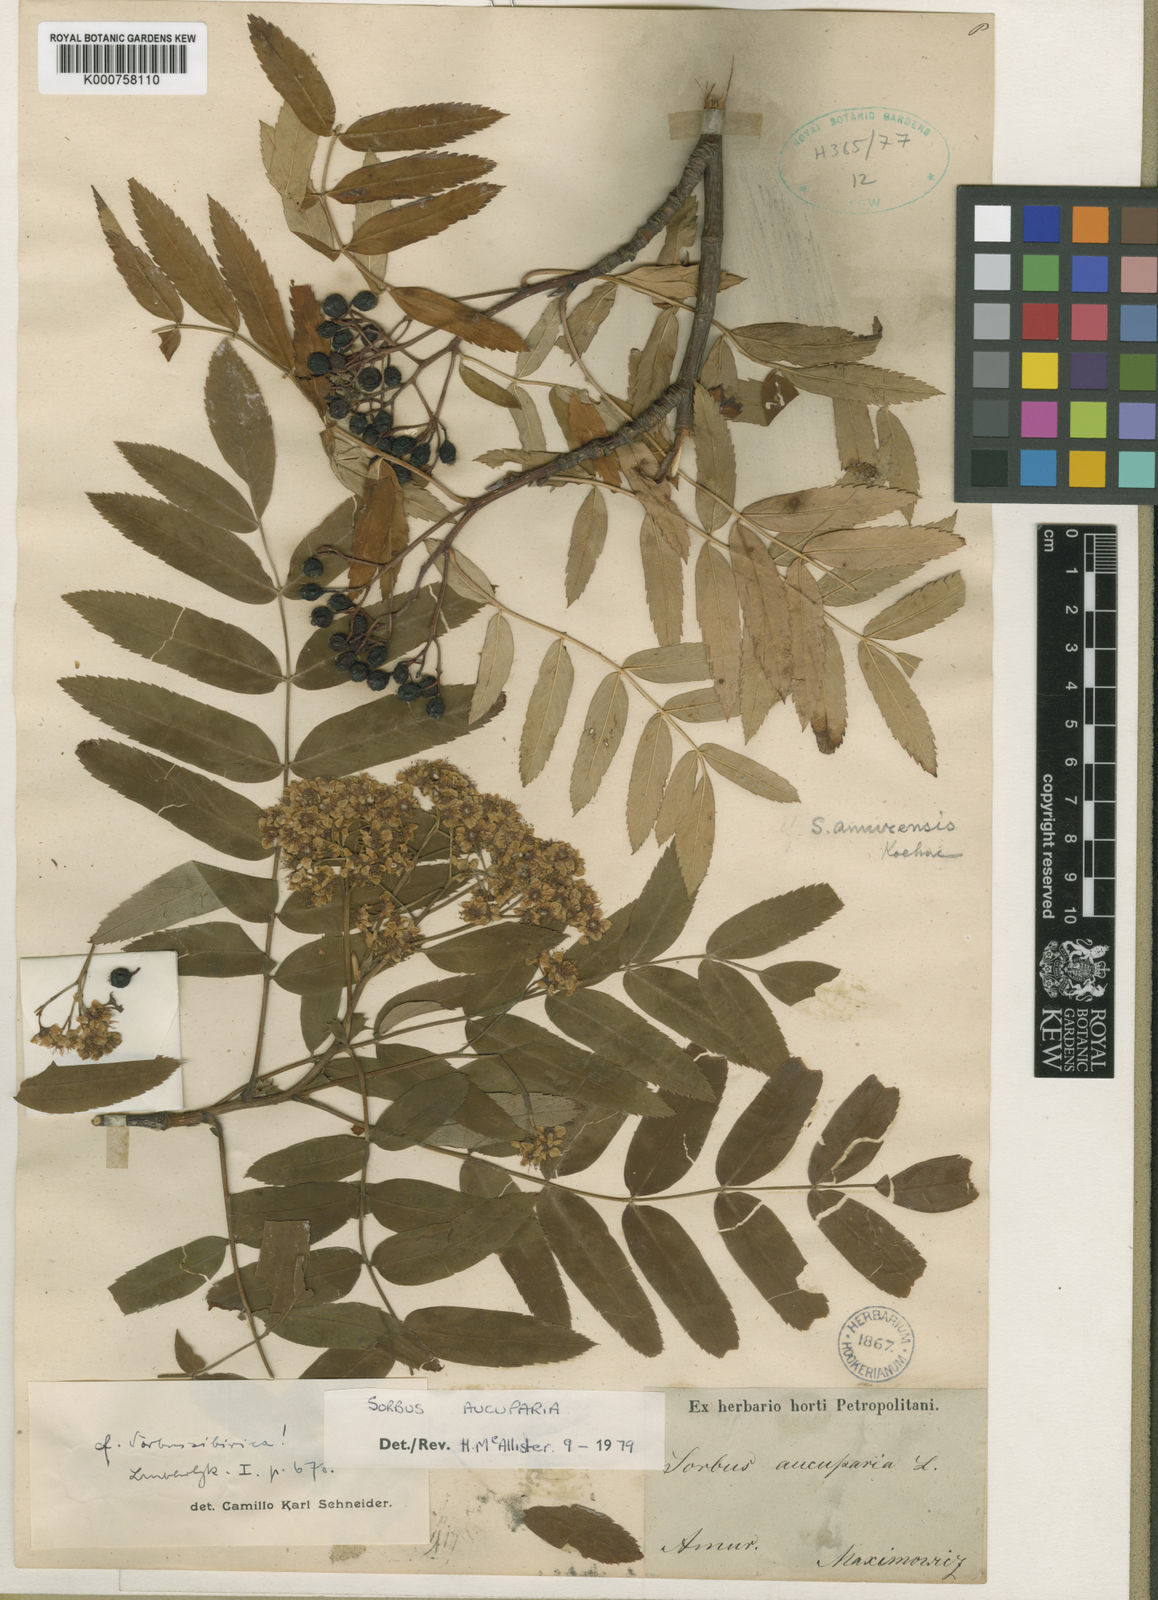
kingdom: Plantae
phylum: Tracheophyta
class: Magnoliopsida
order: Rosales
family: Rosaceae
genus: Sorbus
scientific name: Sorbus aucuparia
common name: Rowan
